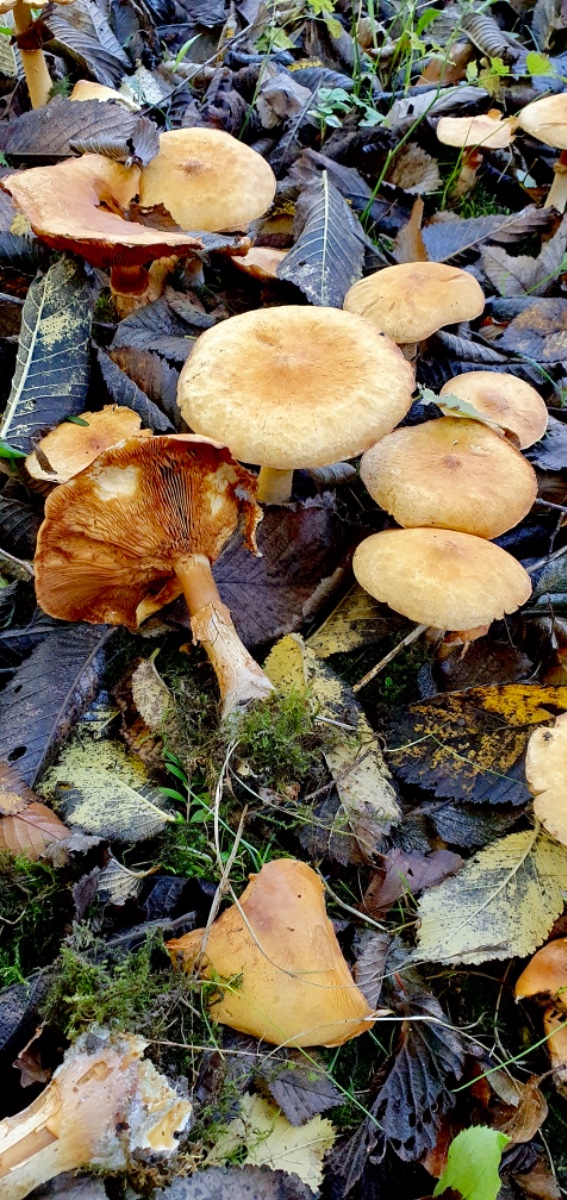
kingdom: Fungi
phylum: Basidiomycota
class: Agaricomycetes
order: Agaricales
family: Tricholomataceae
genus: Phaeolepiota
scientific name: Phaeolepiota aurea
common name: gyldenhat
